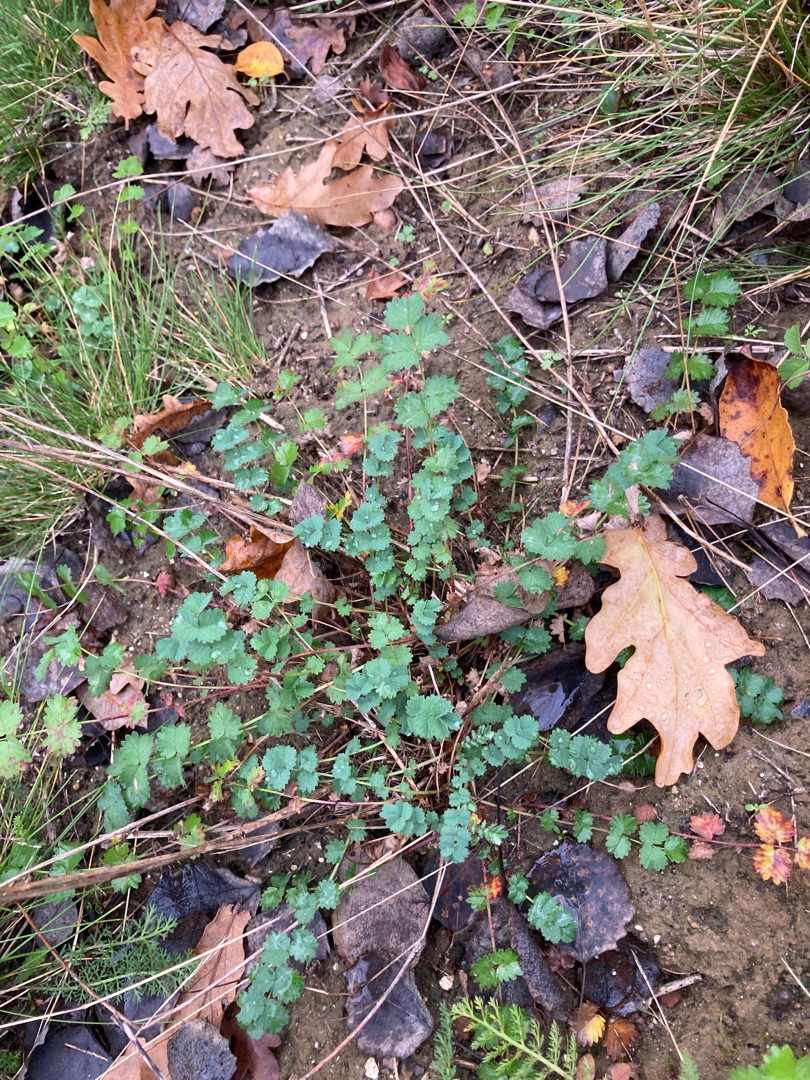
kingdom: Plantae
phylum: Tracheophyta
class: Magnoliopsida
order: Rosales
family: Rosaceae
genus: Poterium
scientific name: Poterium sanguisorba
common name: Bibernelle
